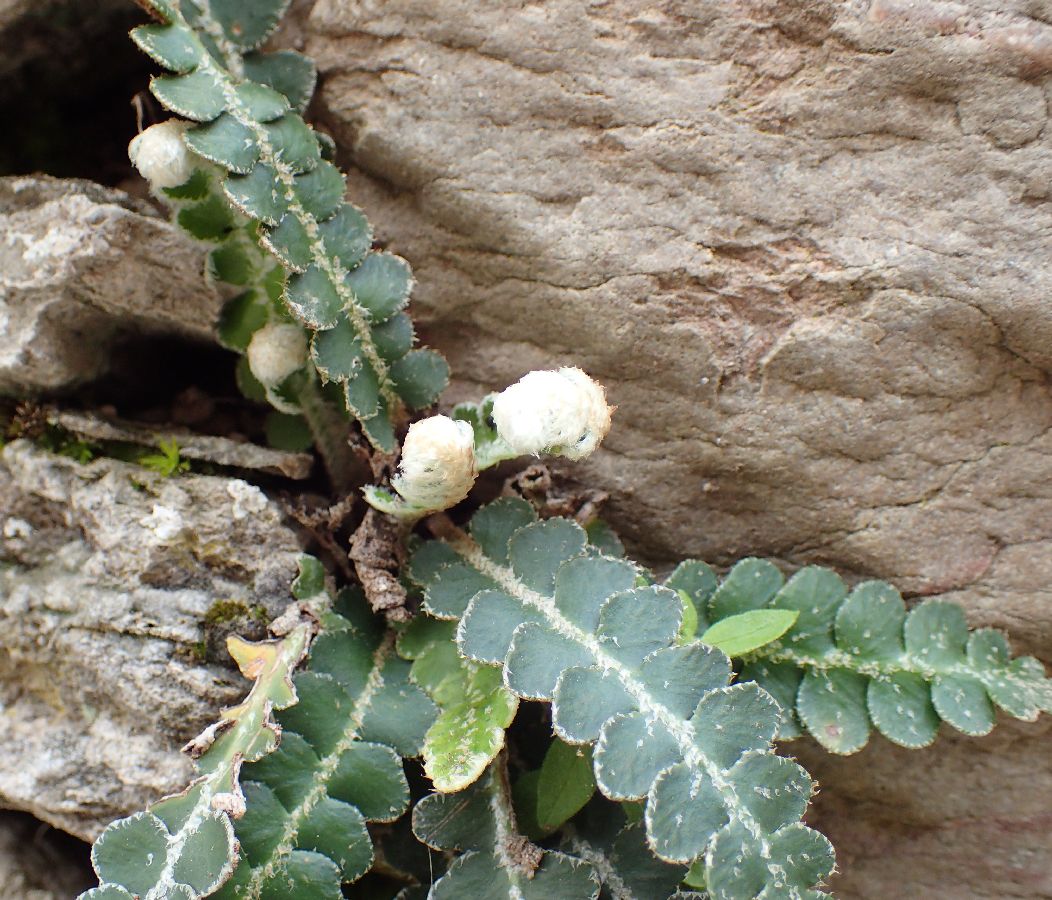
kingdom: Plantae
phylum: Tracheophyta
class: Polypodiopsida
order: Polypodiales
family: Aspleniaceae
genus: Asplenium
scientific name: Asplenium ceterach
